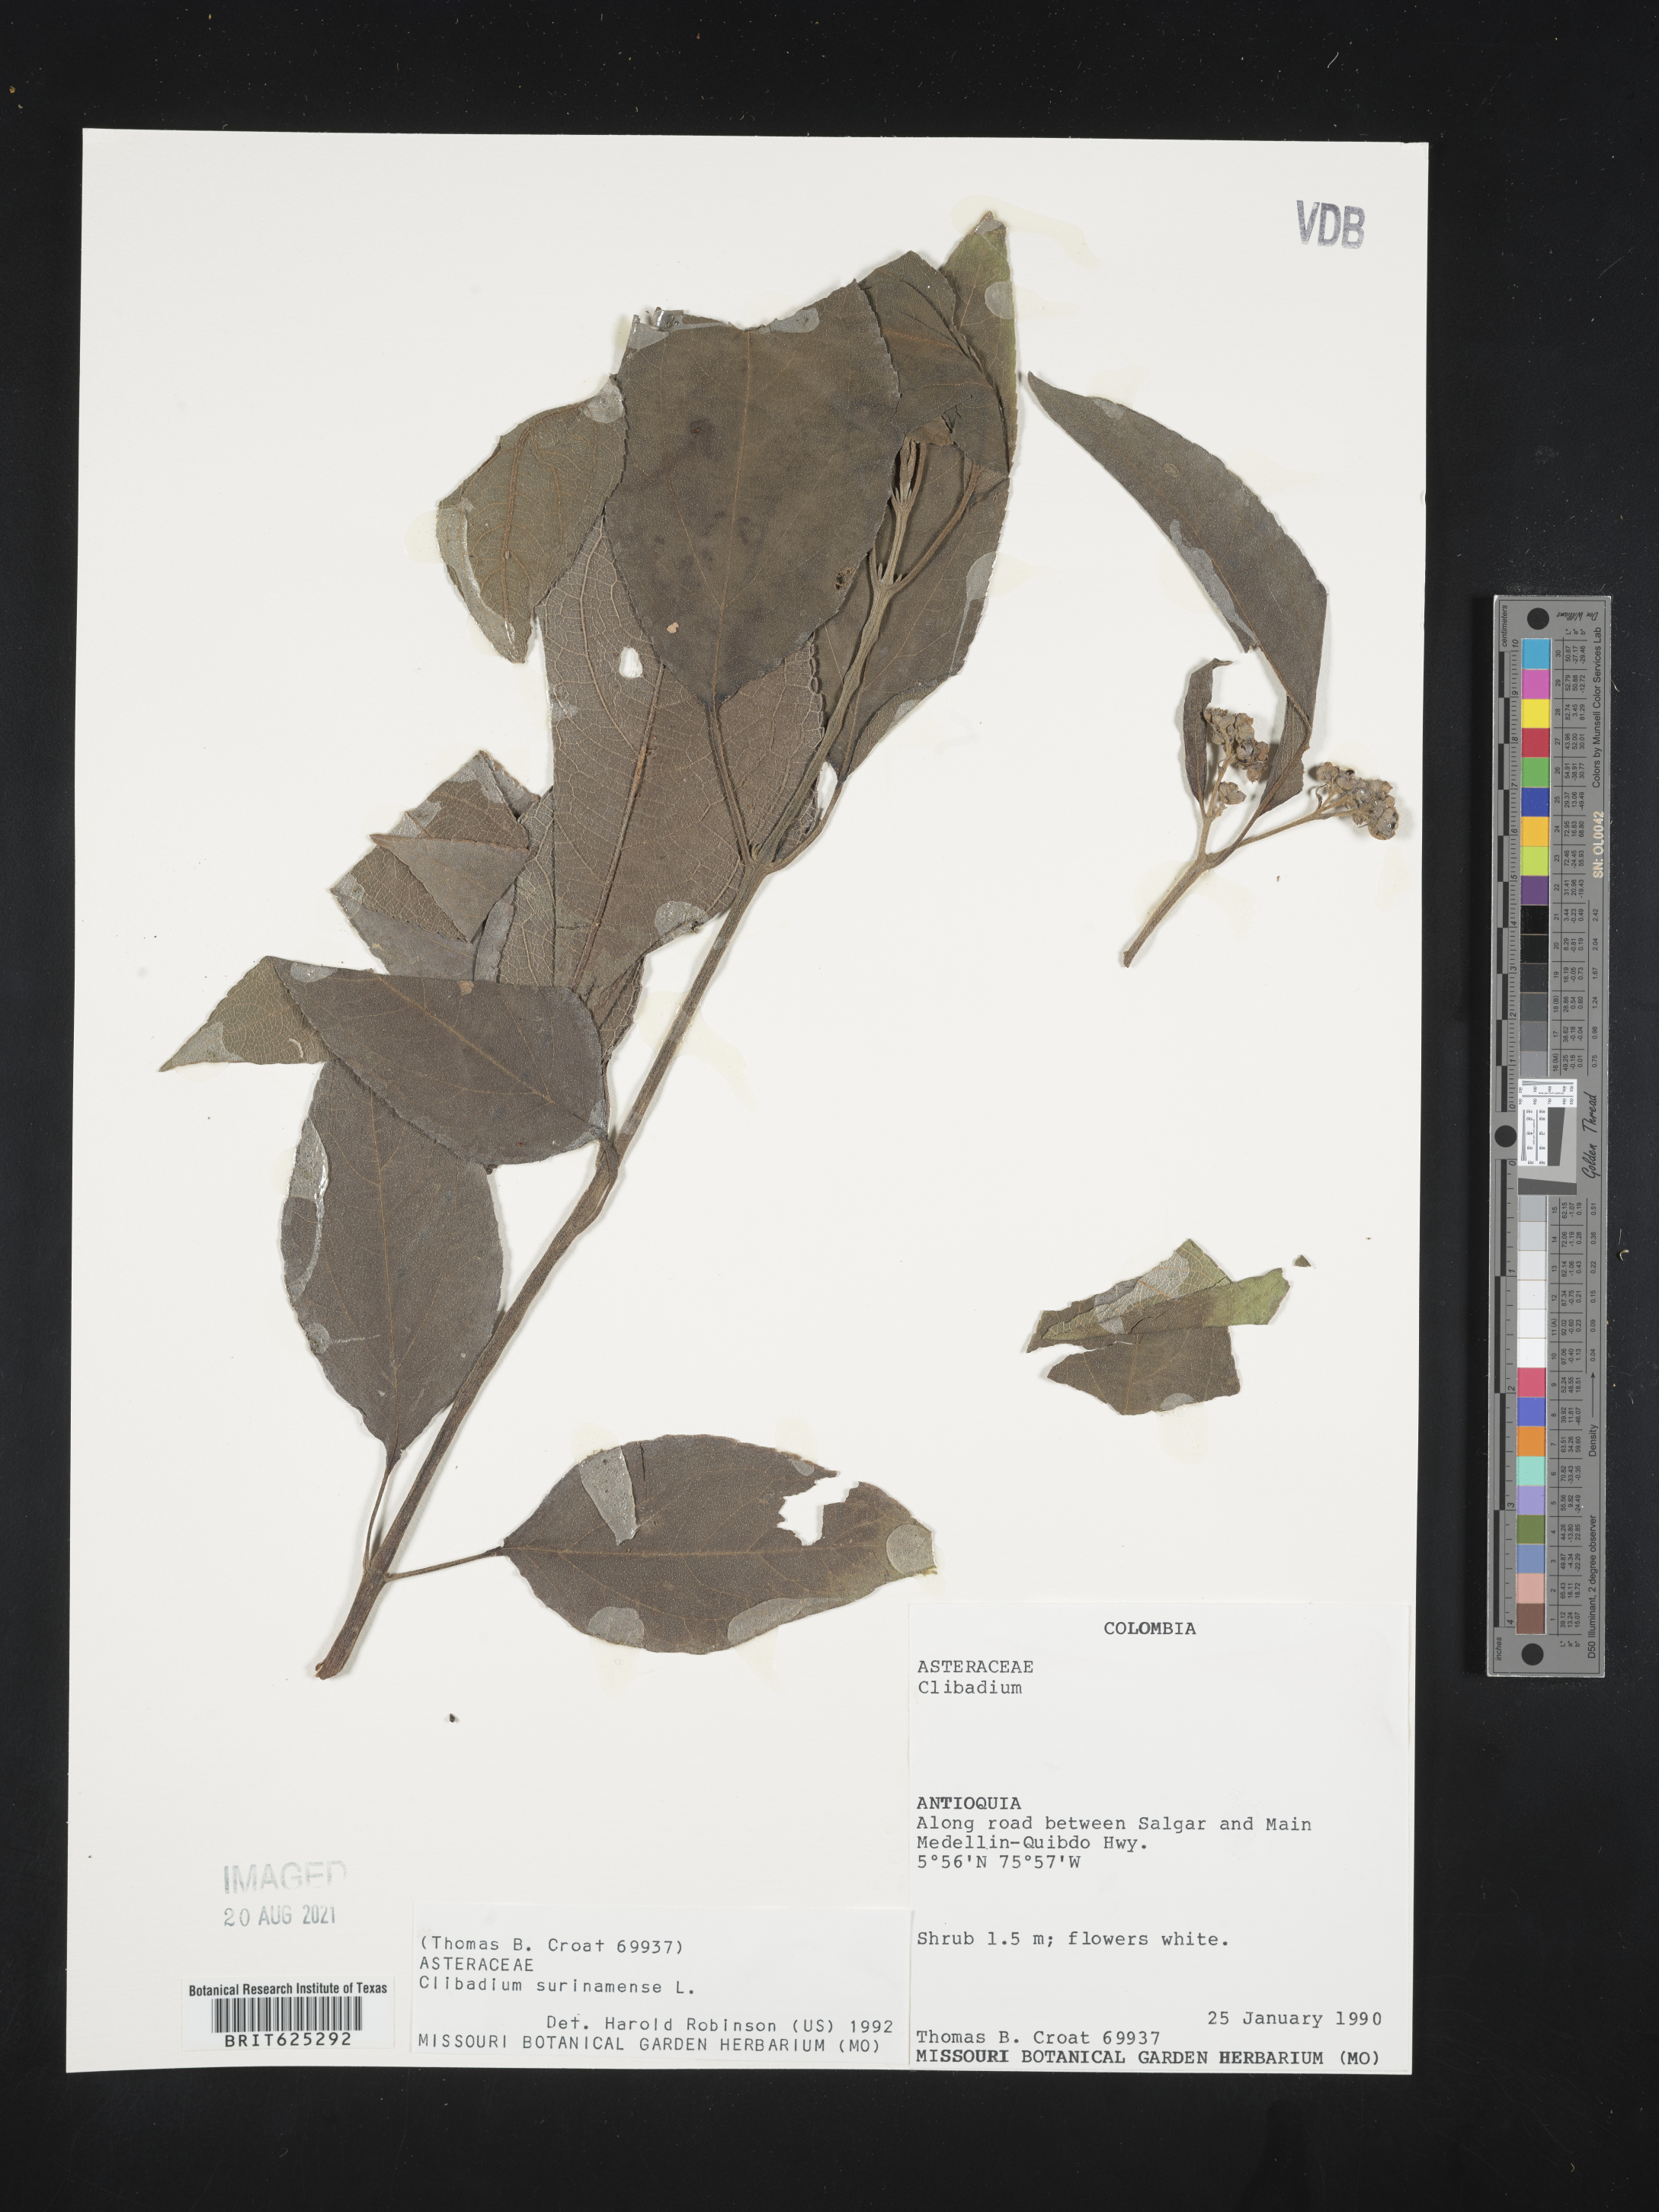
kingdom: Plantae
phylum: Tracheophyta
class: Magnoliopsida
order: Asterales
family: Asteraceae
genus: Clibadium
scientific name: Clibadium surinamense
